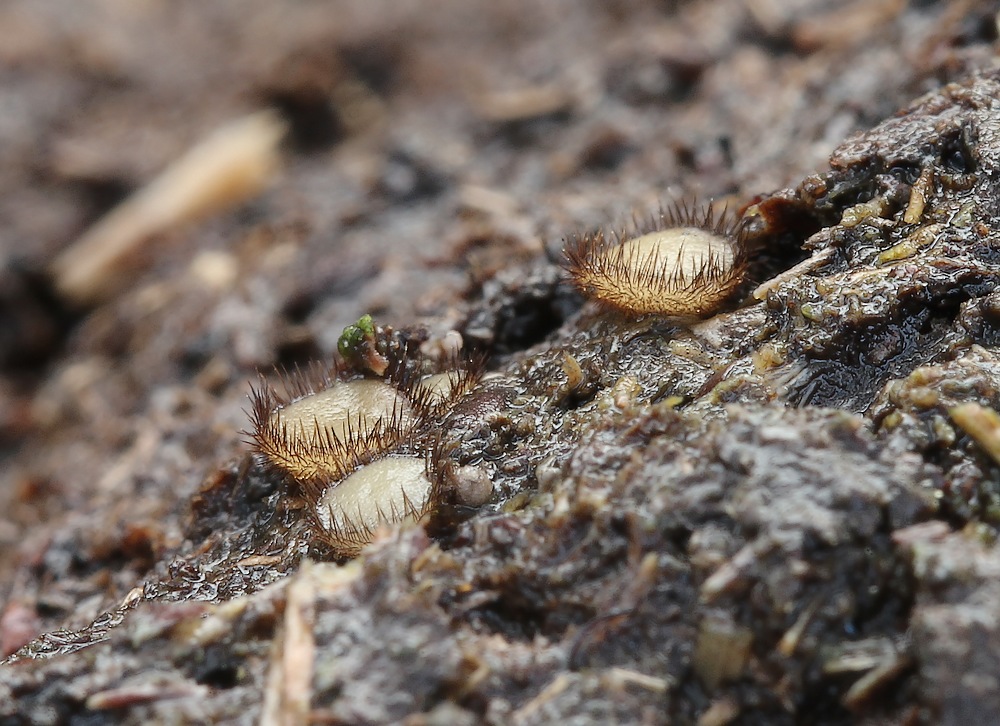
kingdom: Fungi
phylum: Ascomycota
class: Pezizomycetes
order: Pezizales
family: Pyronemataceae
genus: Lasiobolidium
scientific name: Lasiobolidium coprophilum
